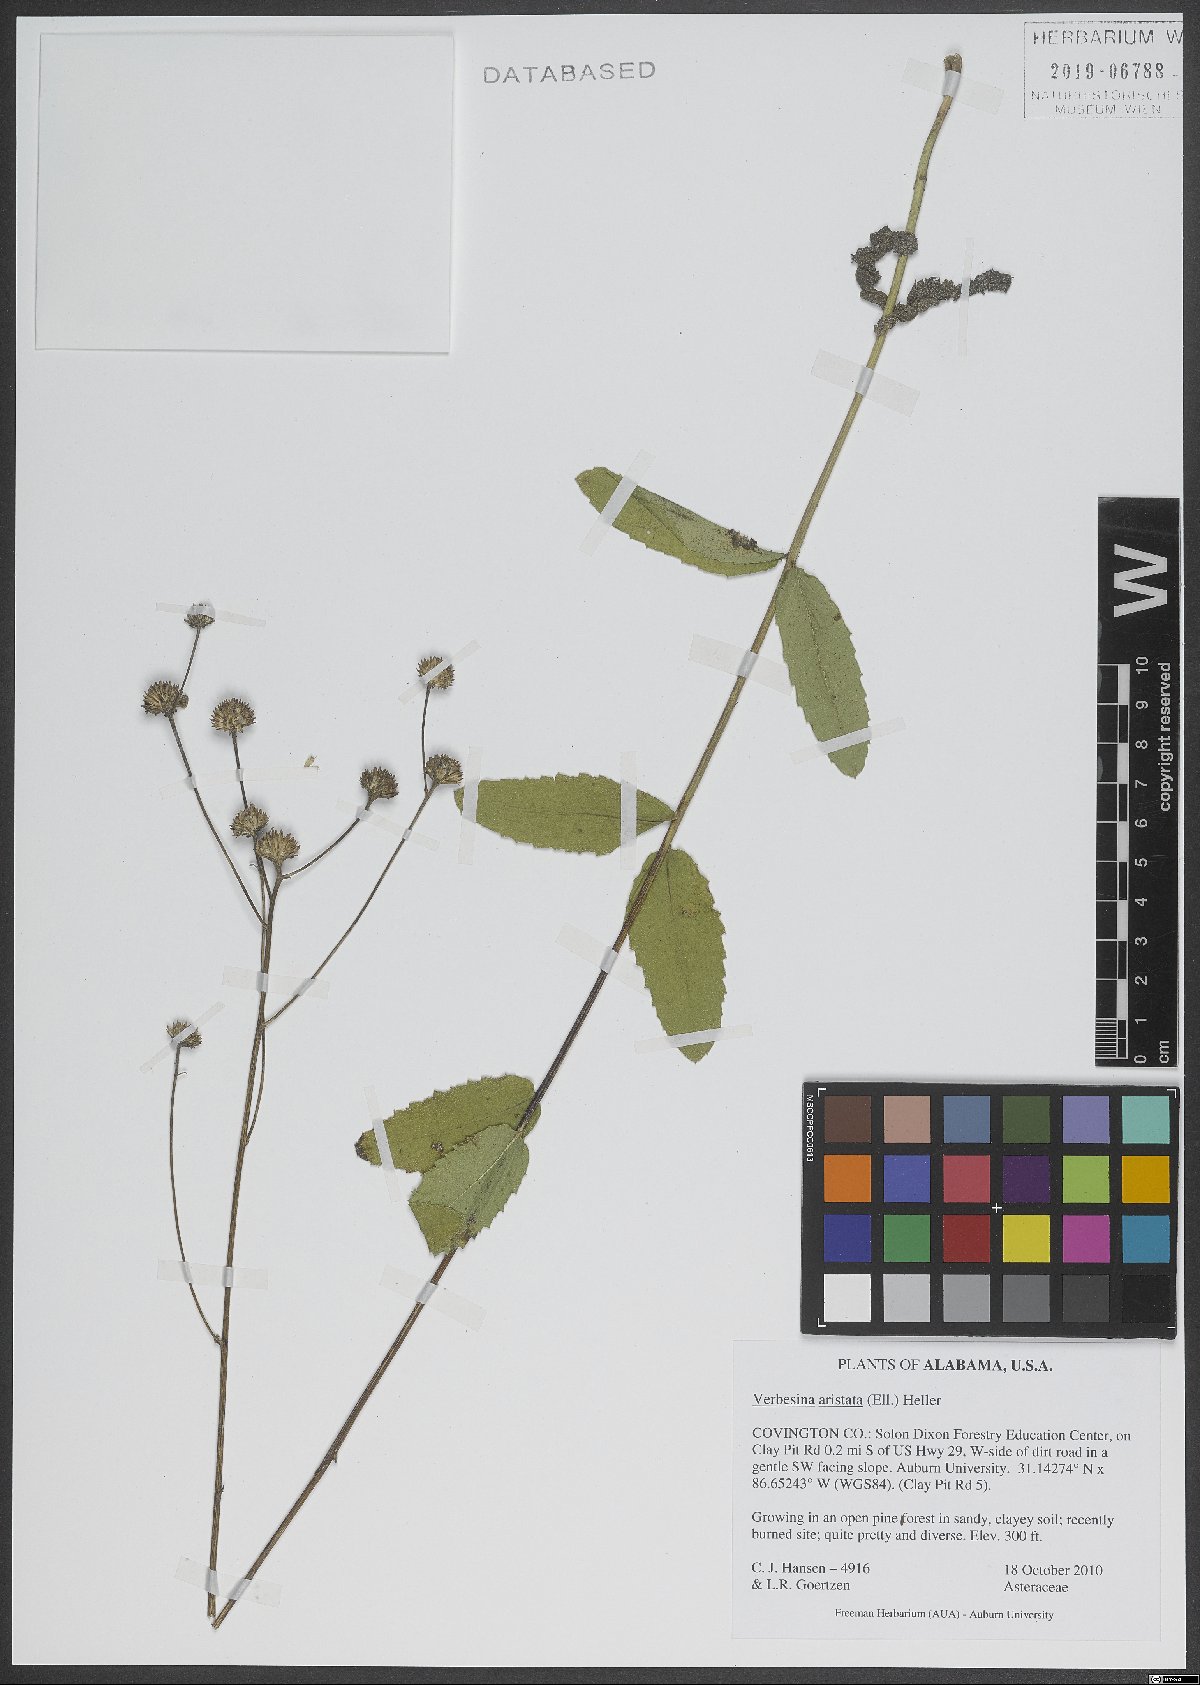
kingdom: Plantae
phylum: Tracheophyta
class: Magnoliopsida
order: Asterales
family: Asteraceae
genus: Verbesina
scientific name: Verbesina aristata
